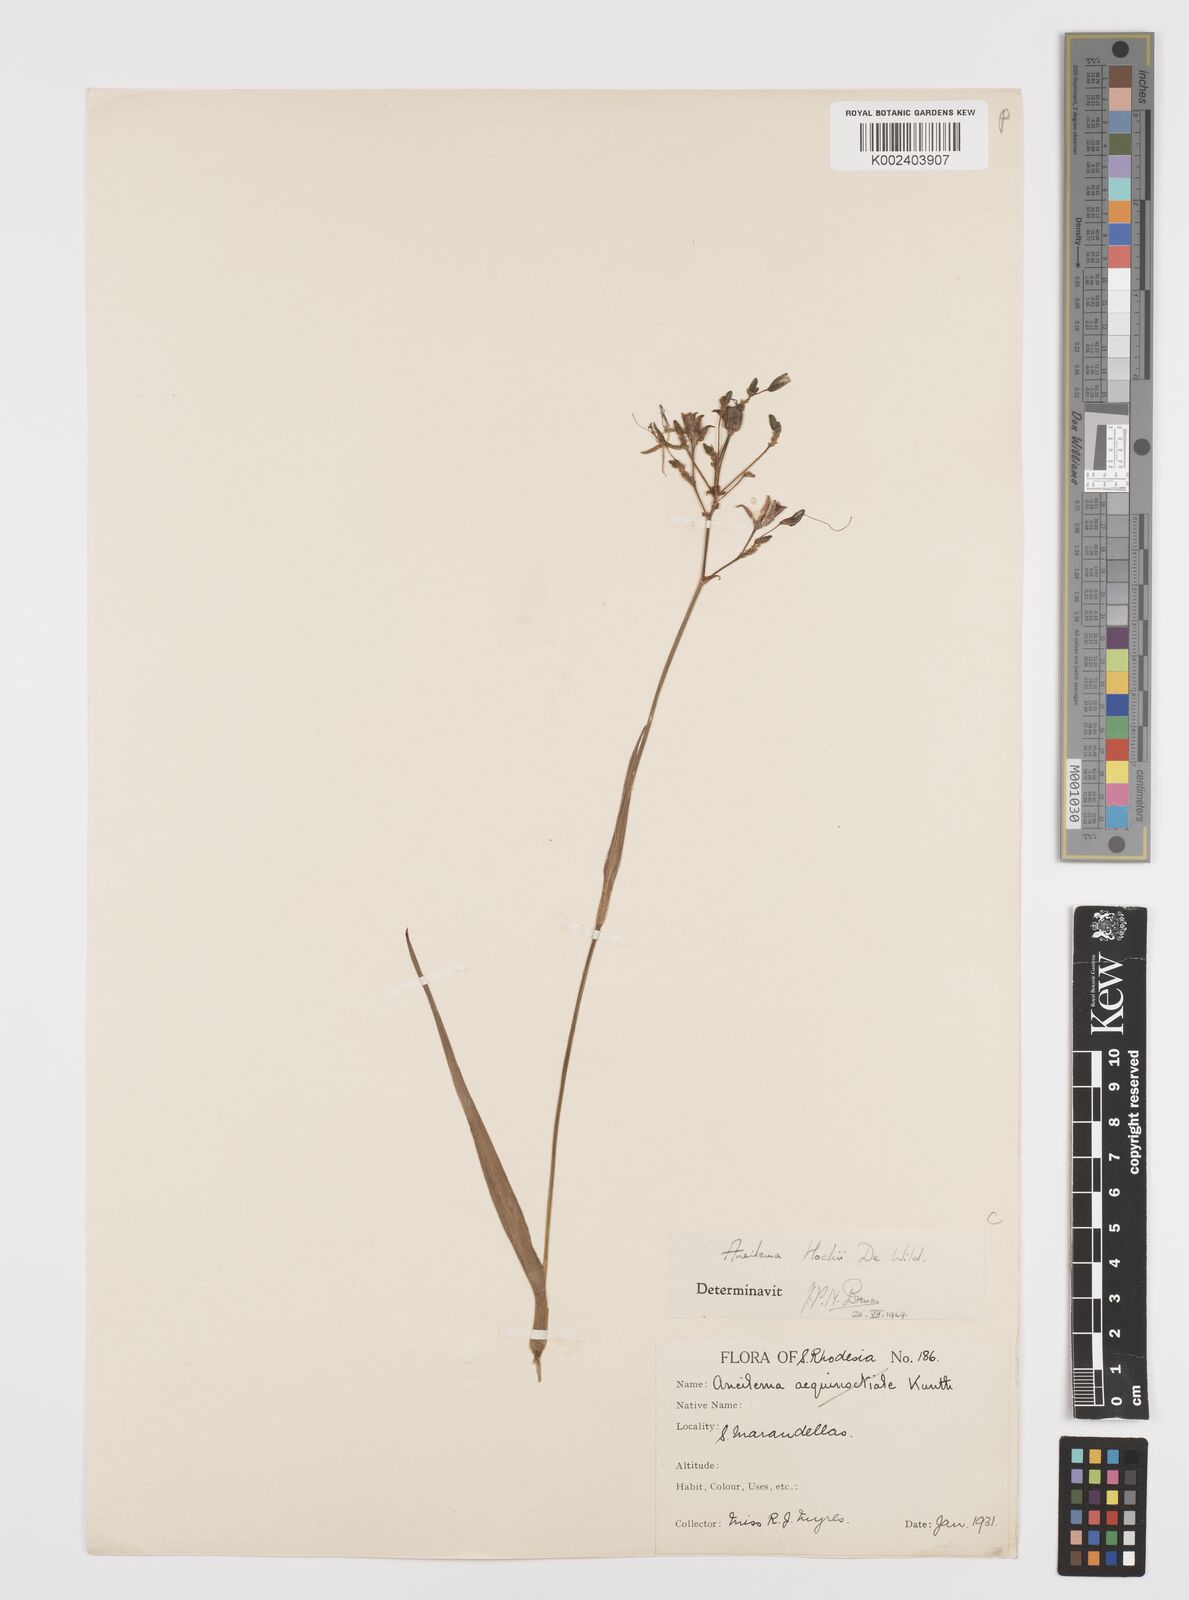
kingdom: Plantae
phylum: Tracheophyta
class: Liliopsida
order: Commelinales
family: Commelinaceae
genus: Aneilema
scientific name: Aneilema hockii
